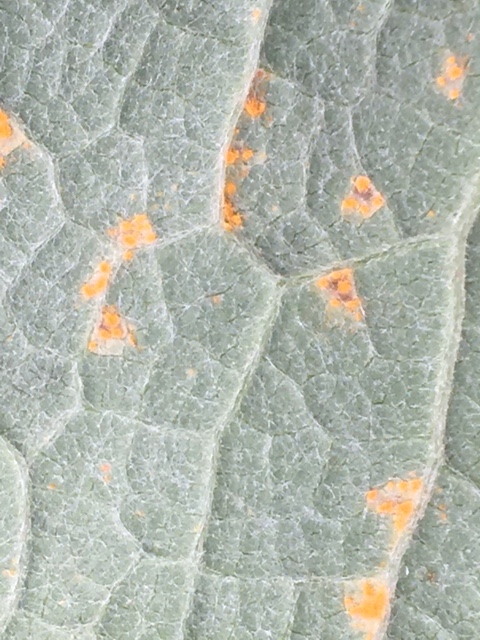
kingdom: Fungi
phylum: Basidiomycota
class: Pucciniomycetes
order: Pucciniales
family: Coleosporiaceae
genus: Coleosporium
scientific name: Coleosporium tussilaginis
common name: almindelig fyrrenålerust
